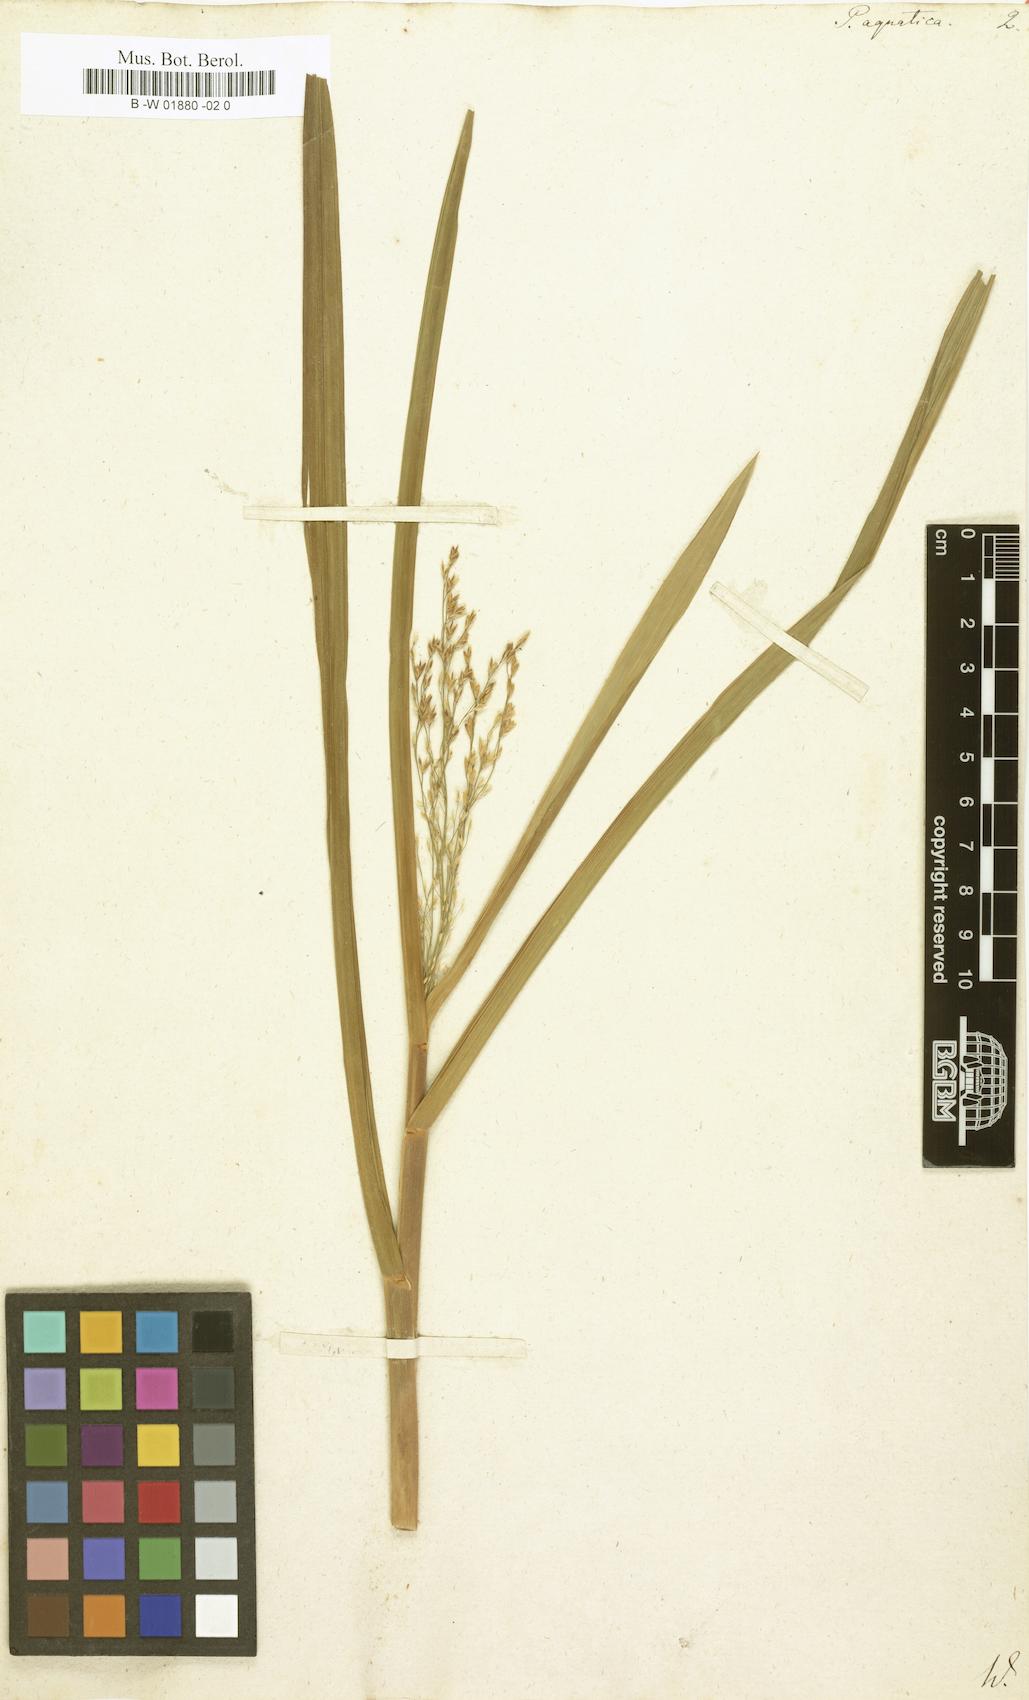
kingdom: Plantae
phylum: Tracheophyta
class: Liliopsida
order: Poales
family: Poaceae
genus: Glyceria
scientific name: Glyceria maxima
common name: Reed mannagrass
